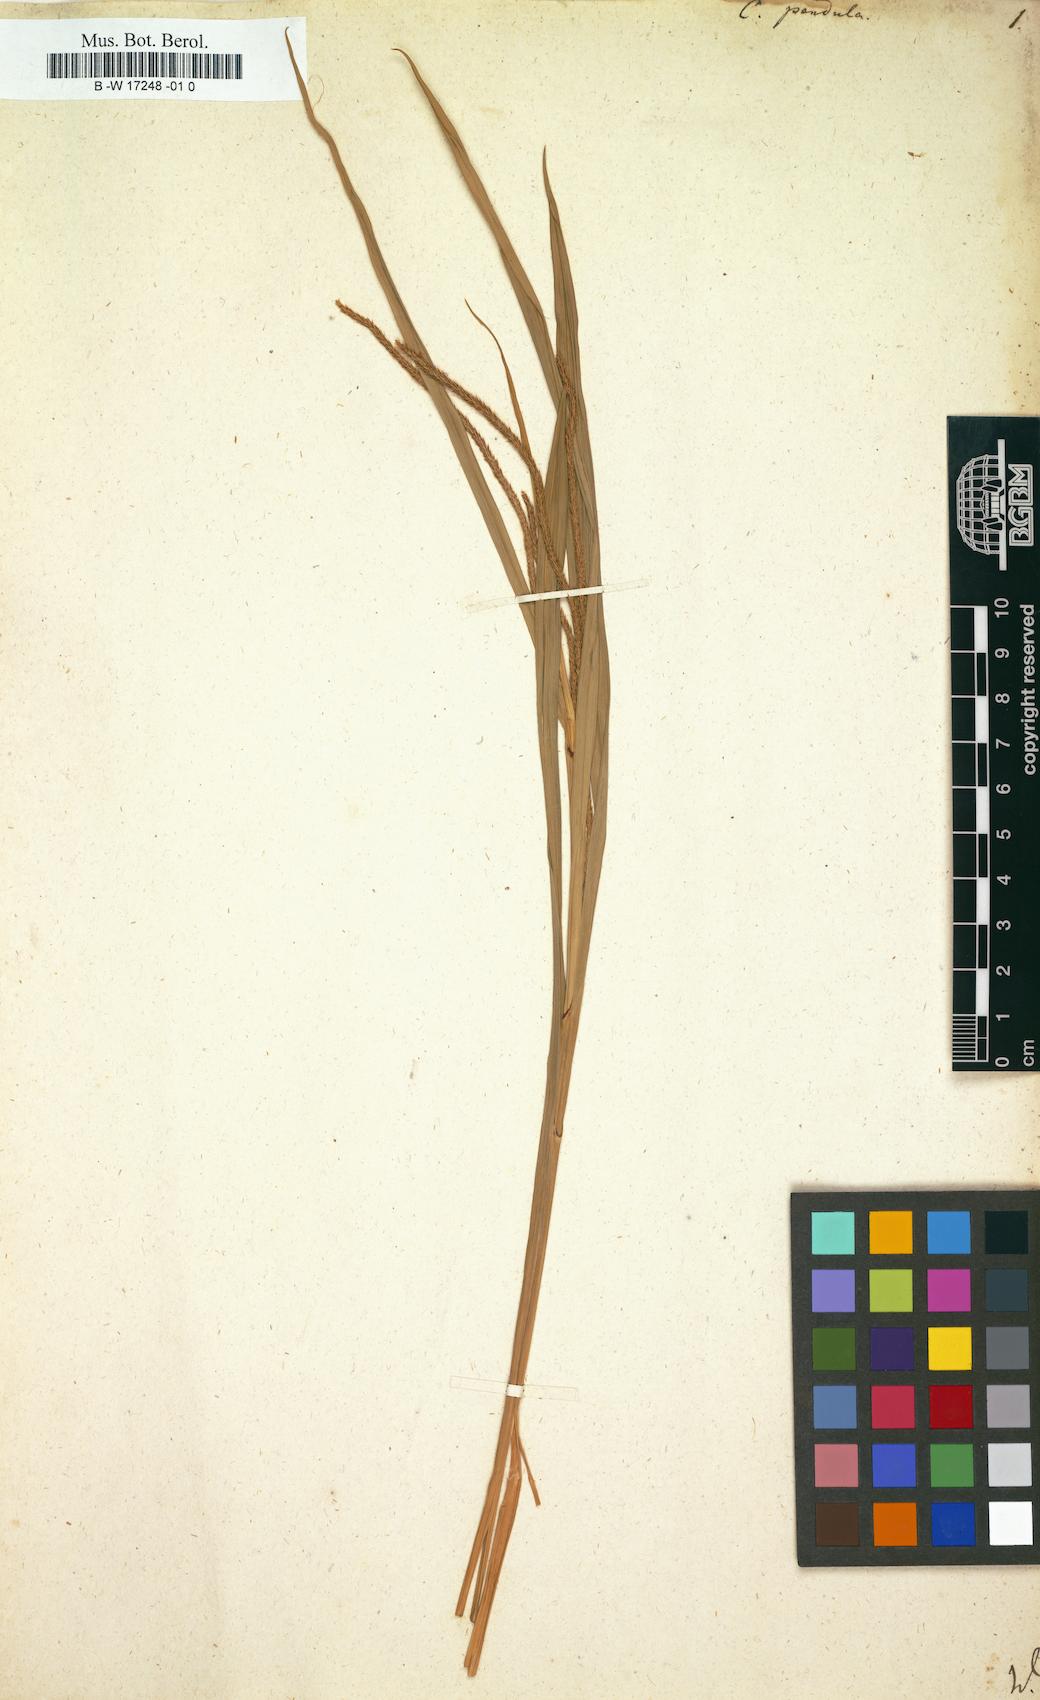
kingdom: Plantae
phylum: Tracheophyta
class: Liliopsida
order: Poales
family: Cyperaceae
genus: Carex
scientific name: Carex pendula
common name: Pendulous sedge
